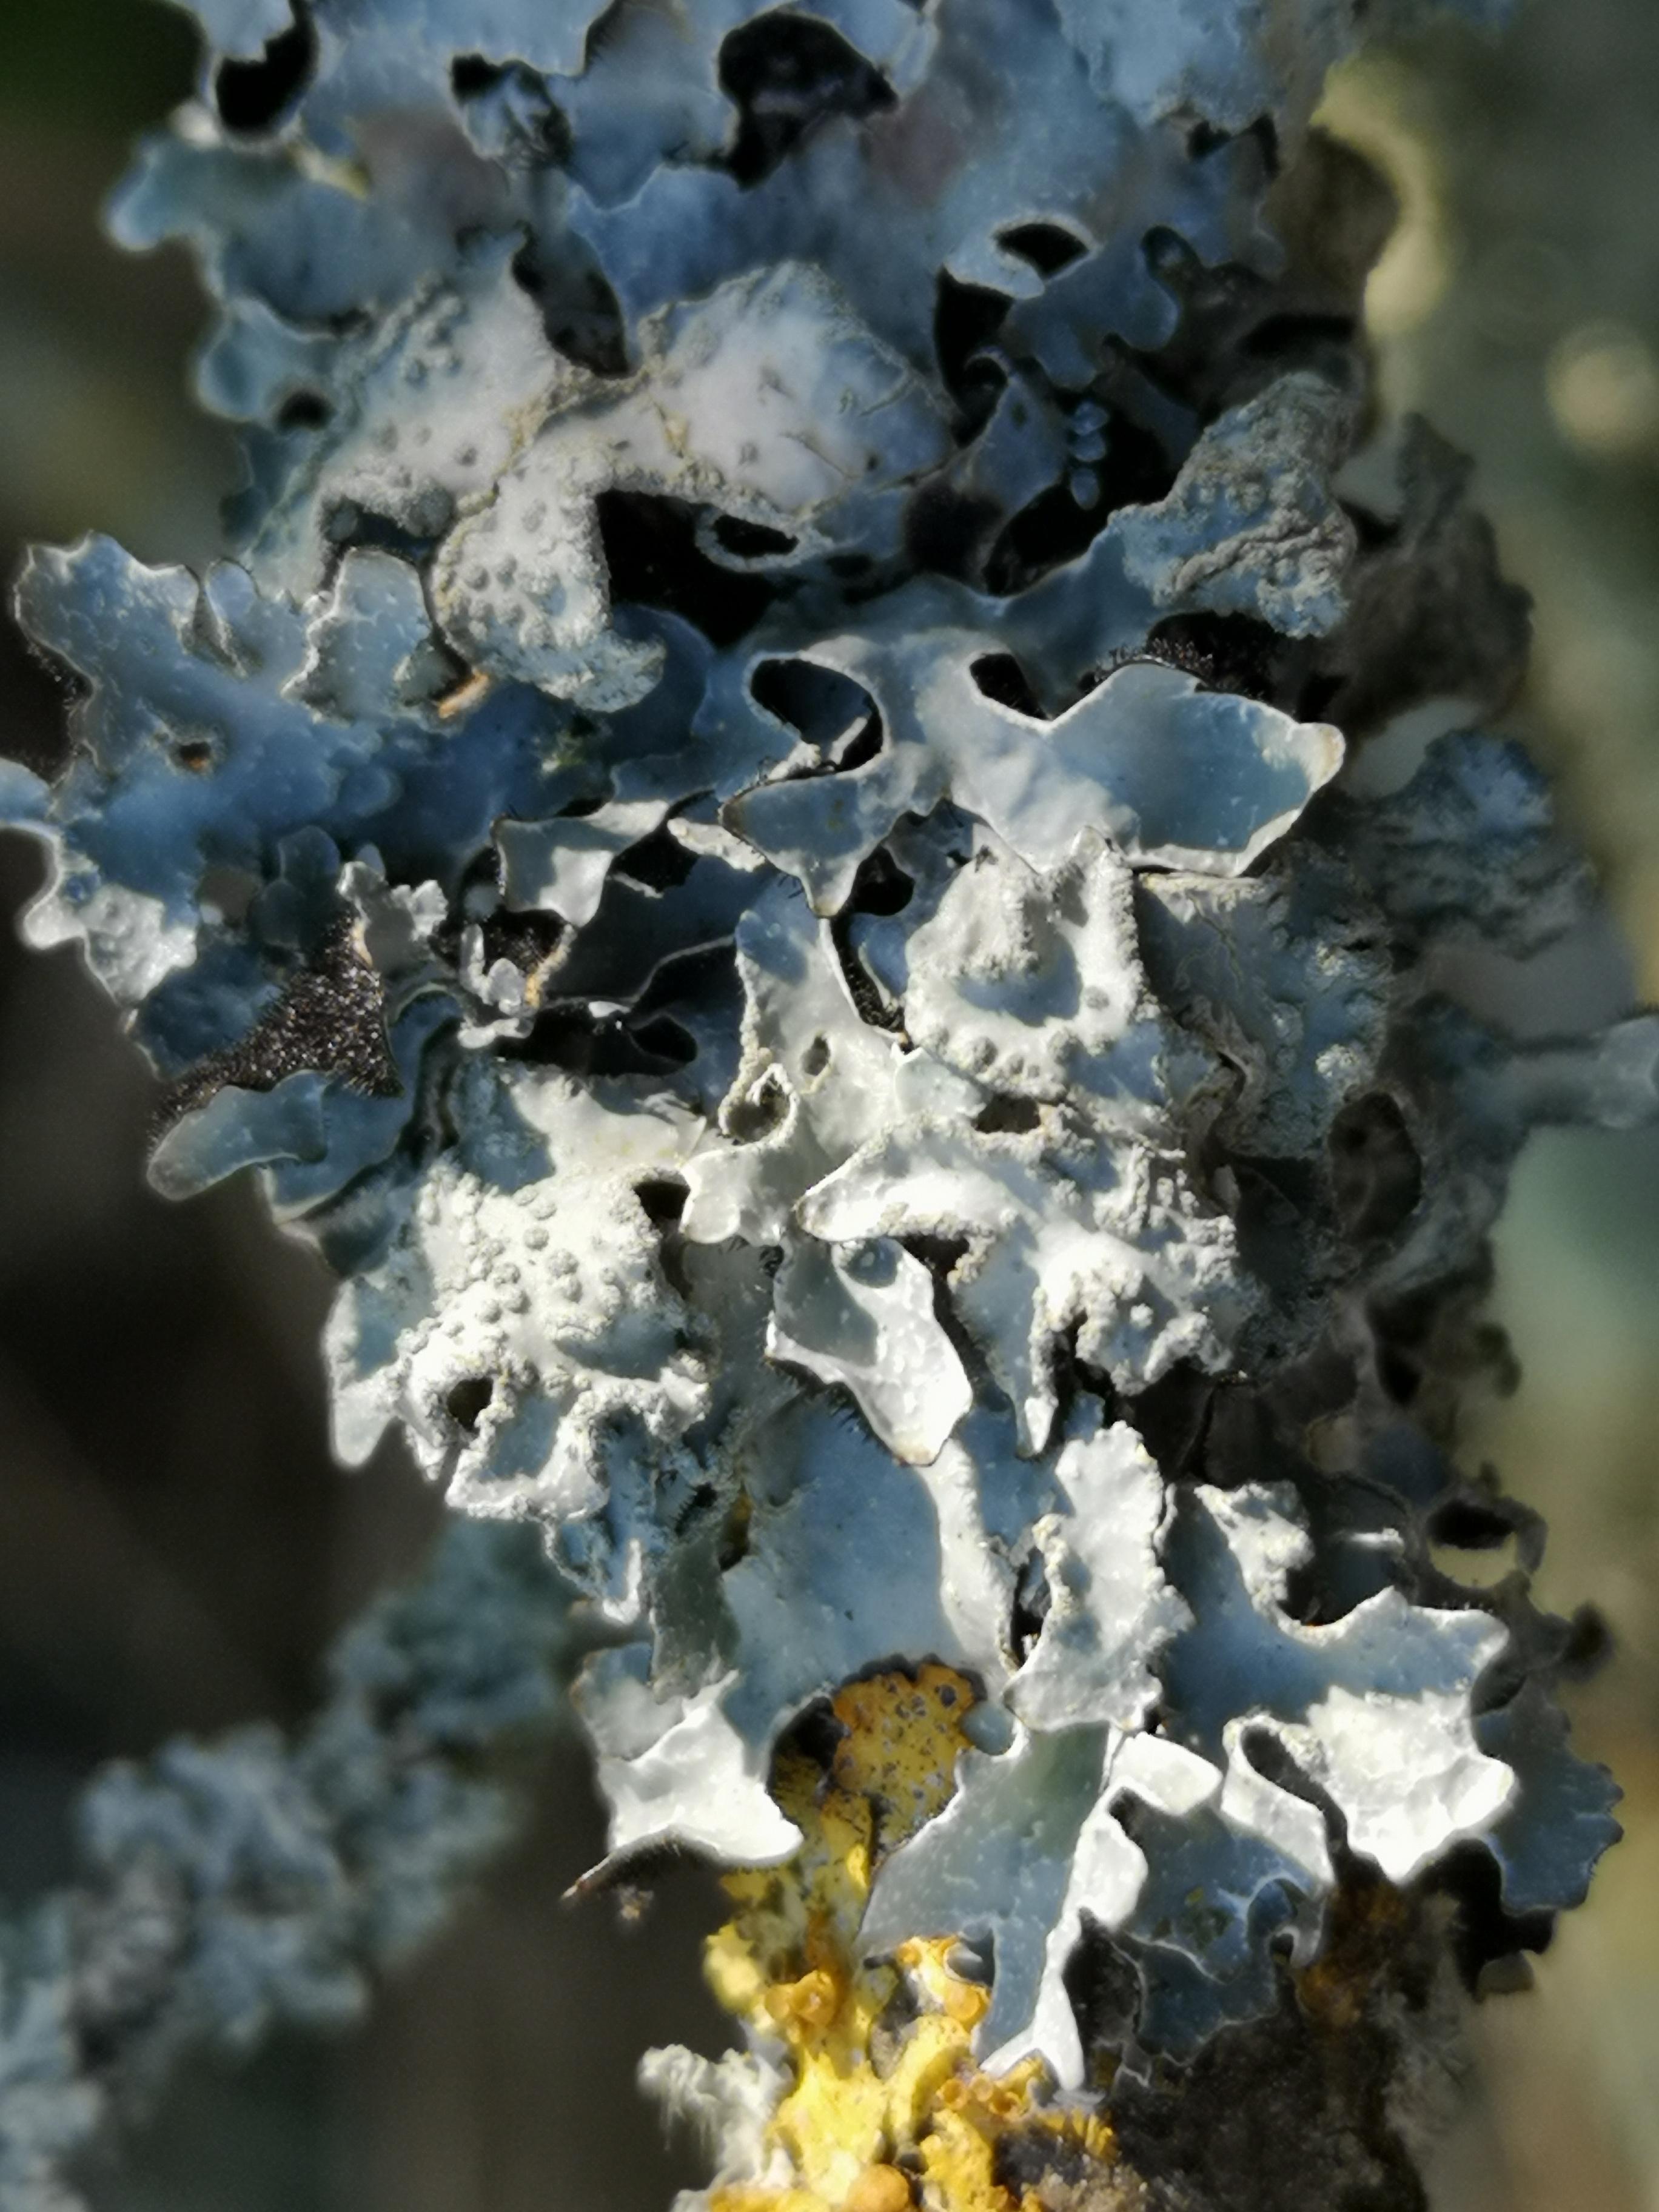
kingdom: Fungi
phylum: Ascomycota
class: Lecanoromycetes
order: Lecanorales
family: Parmeliaceae
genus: Parmelia
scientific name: Parmelia sulcata
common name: rynket skållav
